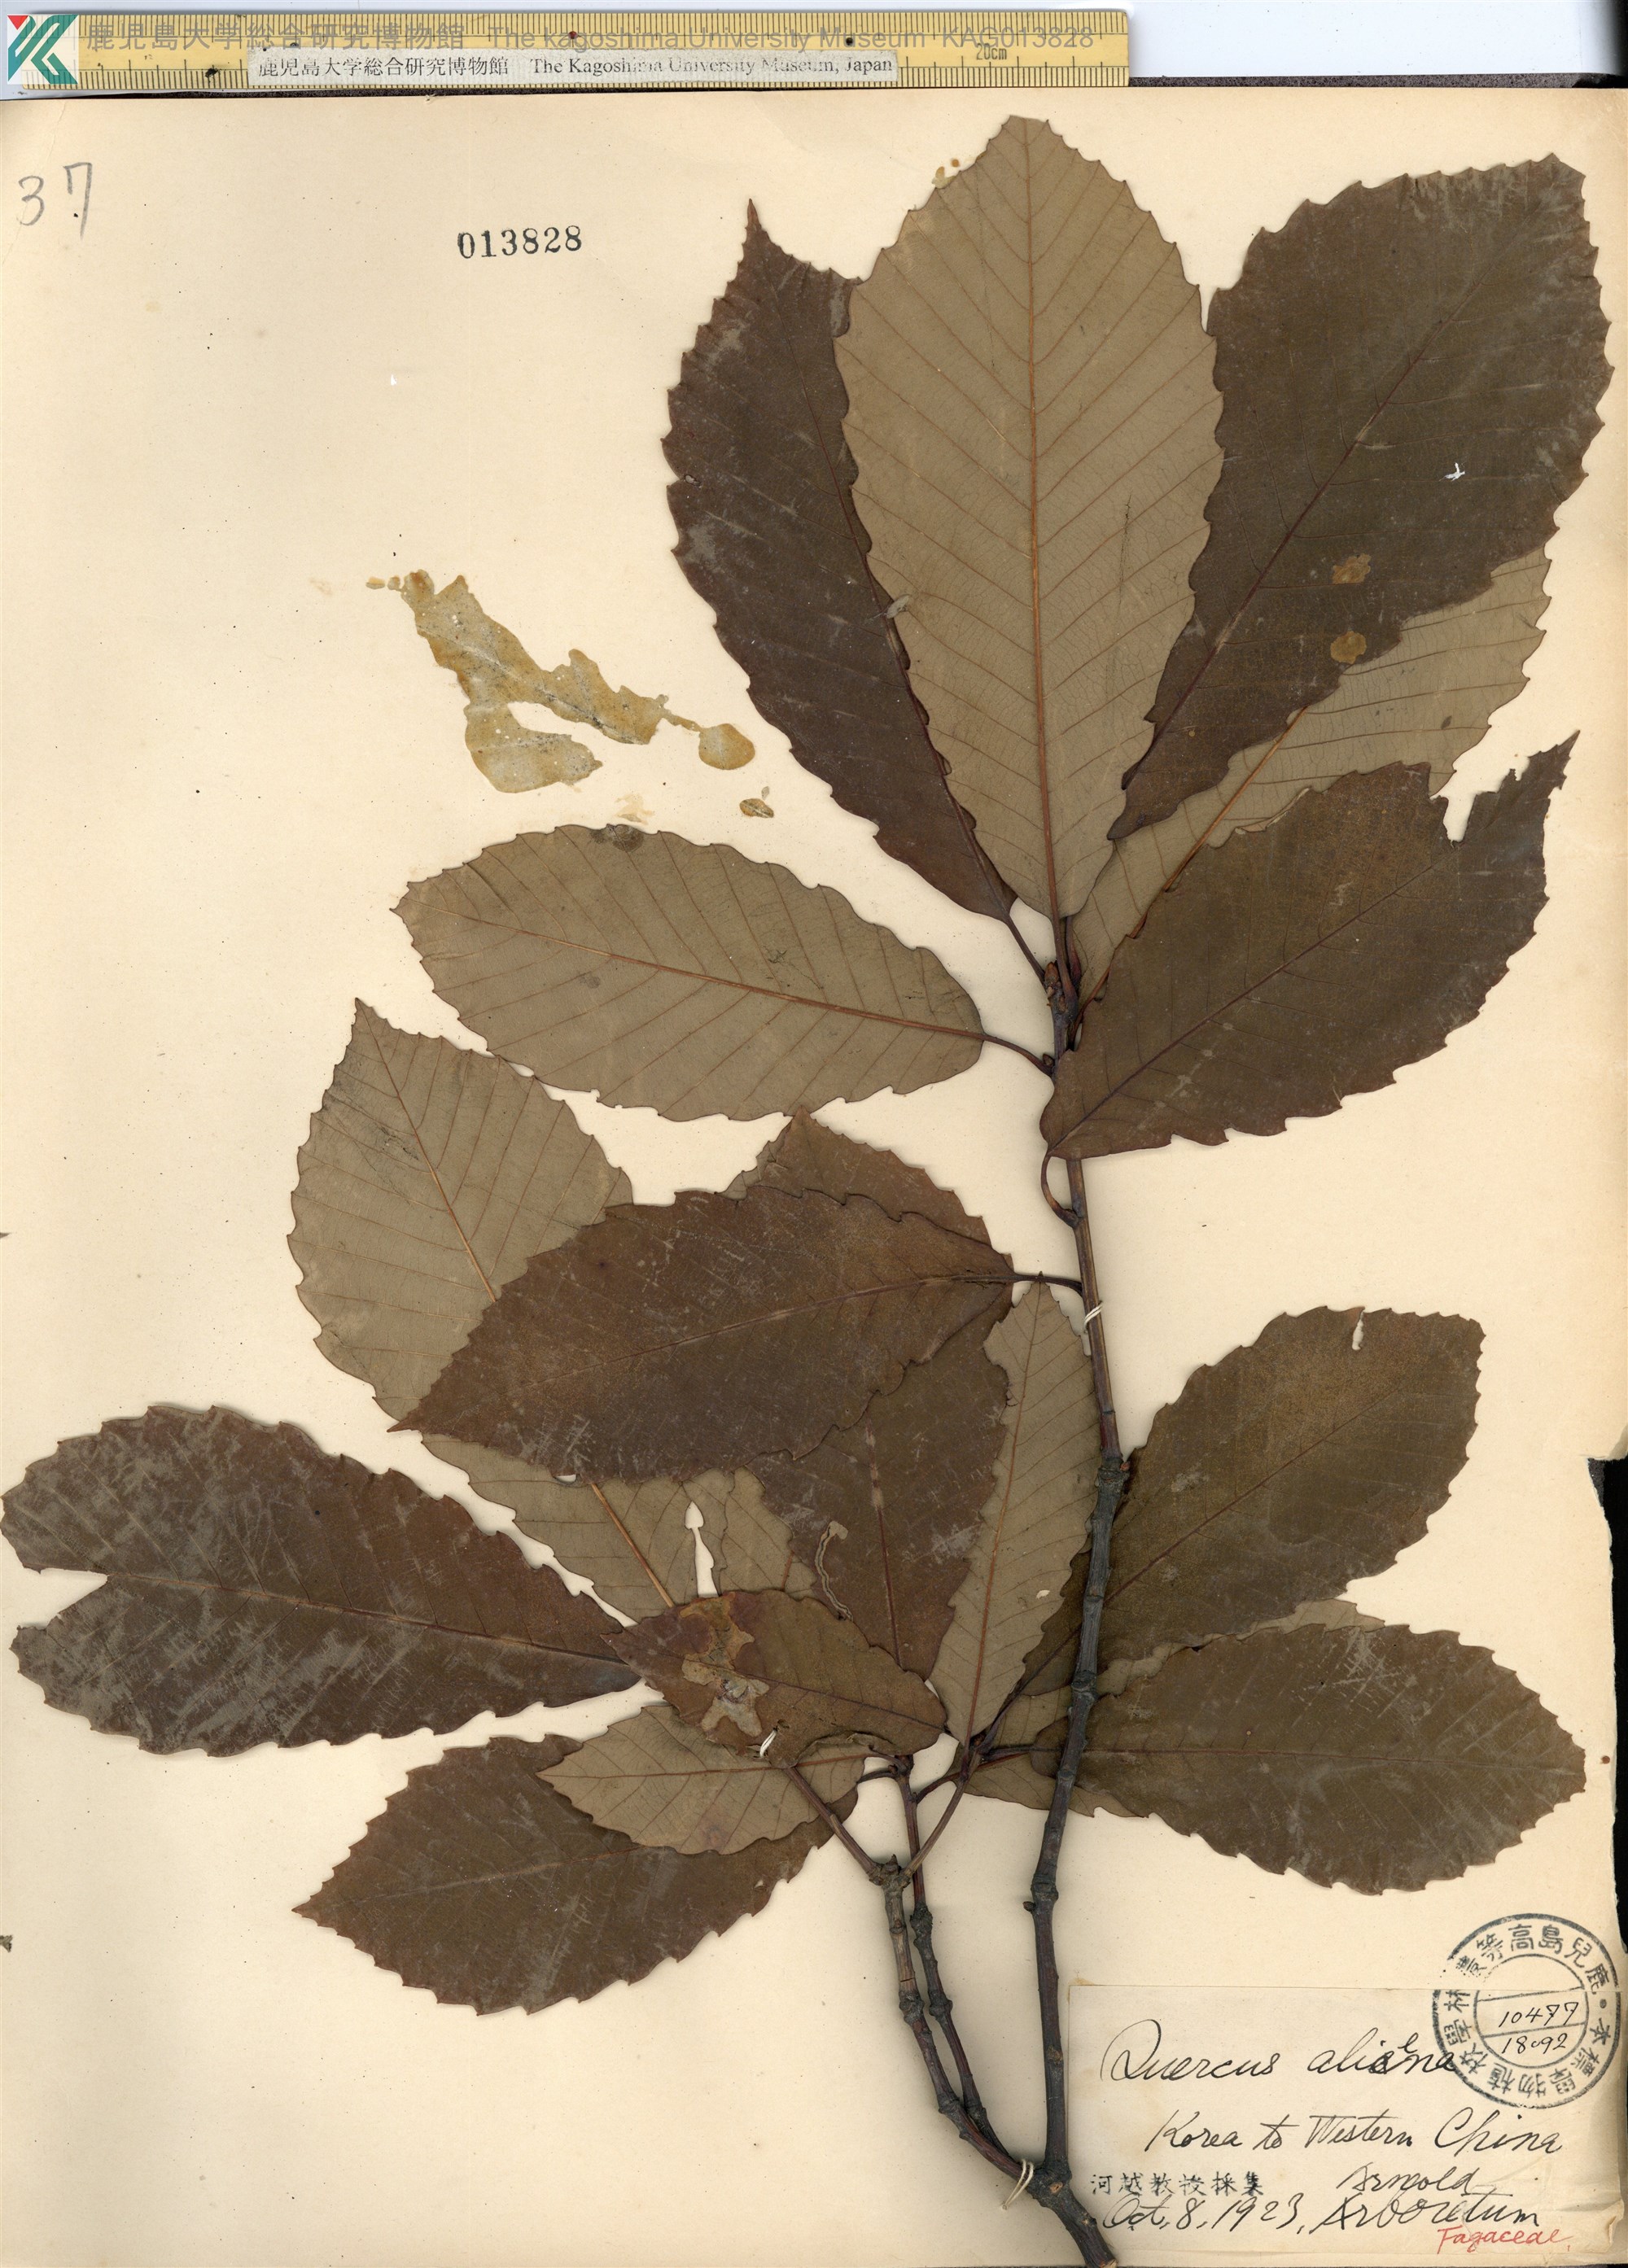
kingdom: Plantae
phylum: Tracheophyta
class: Magnoliopsida
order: Fagales
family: Fagaceae
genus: Quercus
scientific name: Quercus aliena
